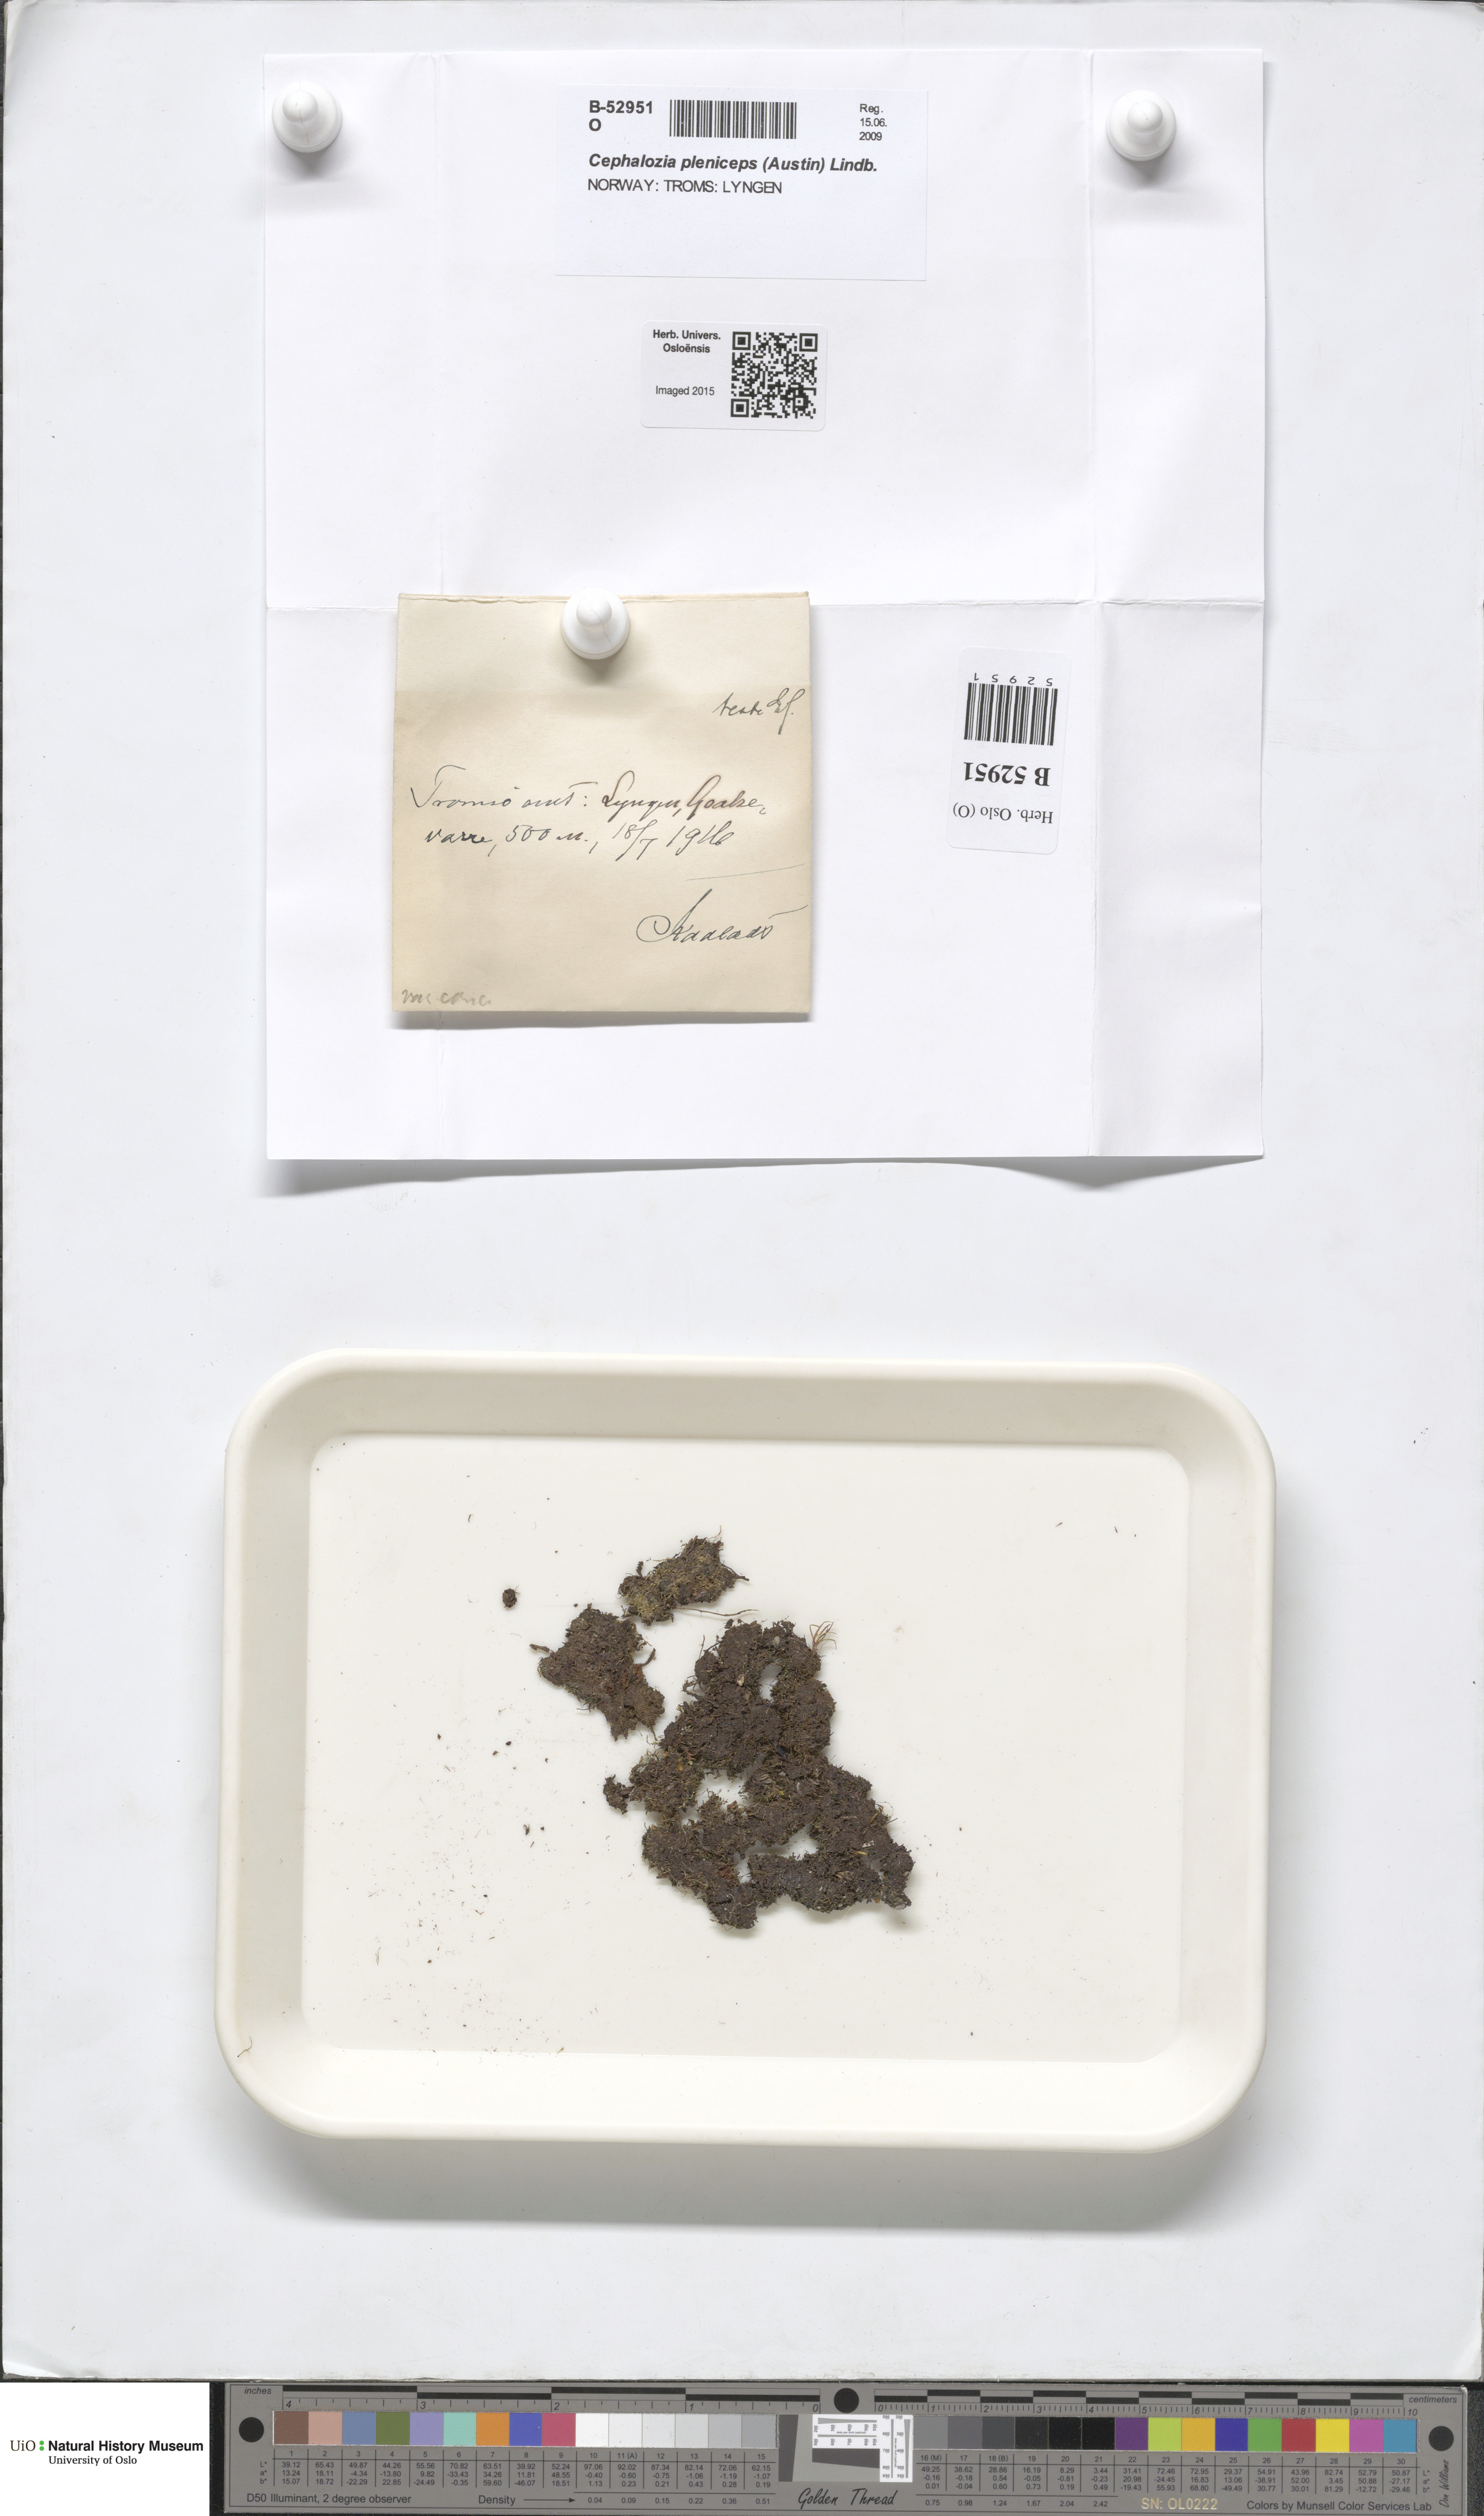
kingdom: Plantae
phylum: Marchantiophyta
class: Jungermanniopsida
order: Jungermanniales
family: Cephaloziaceae
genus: Fuscocephaloziopsis
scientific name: Fuscocephaloziopsis pleniceps
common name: Blunt pincerwort
